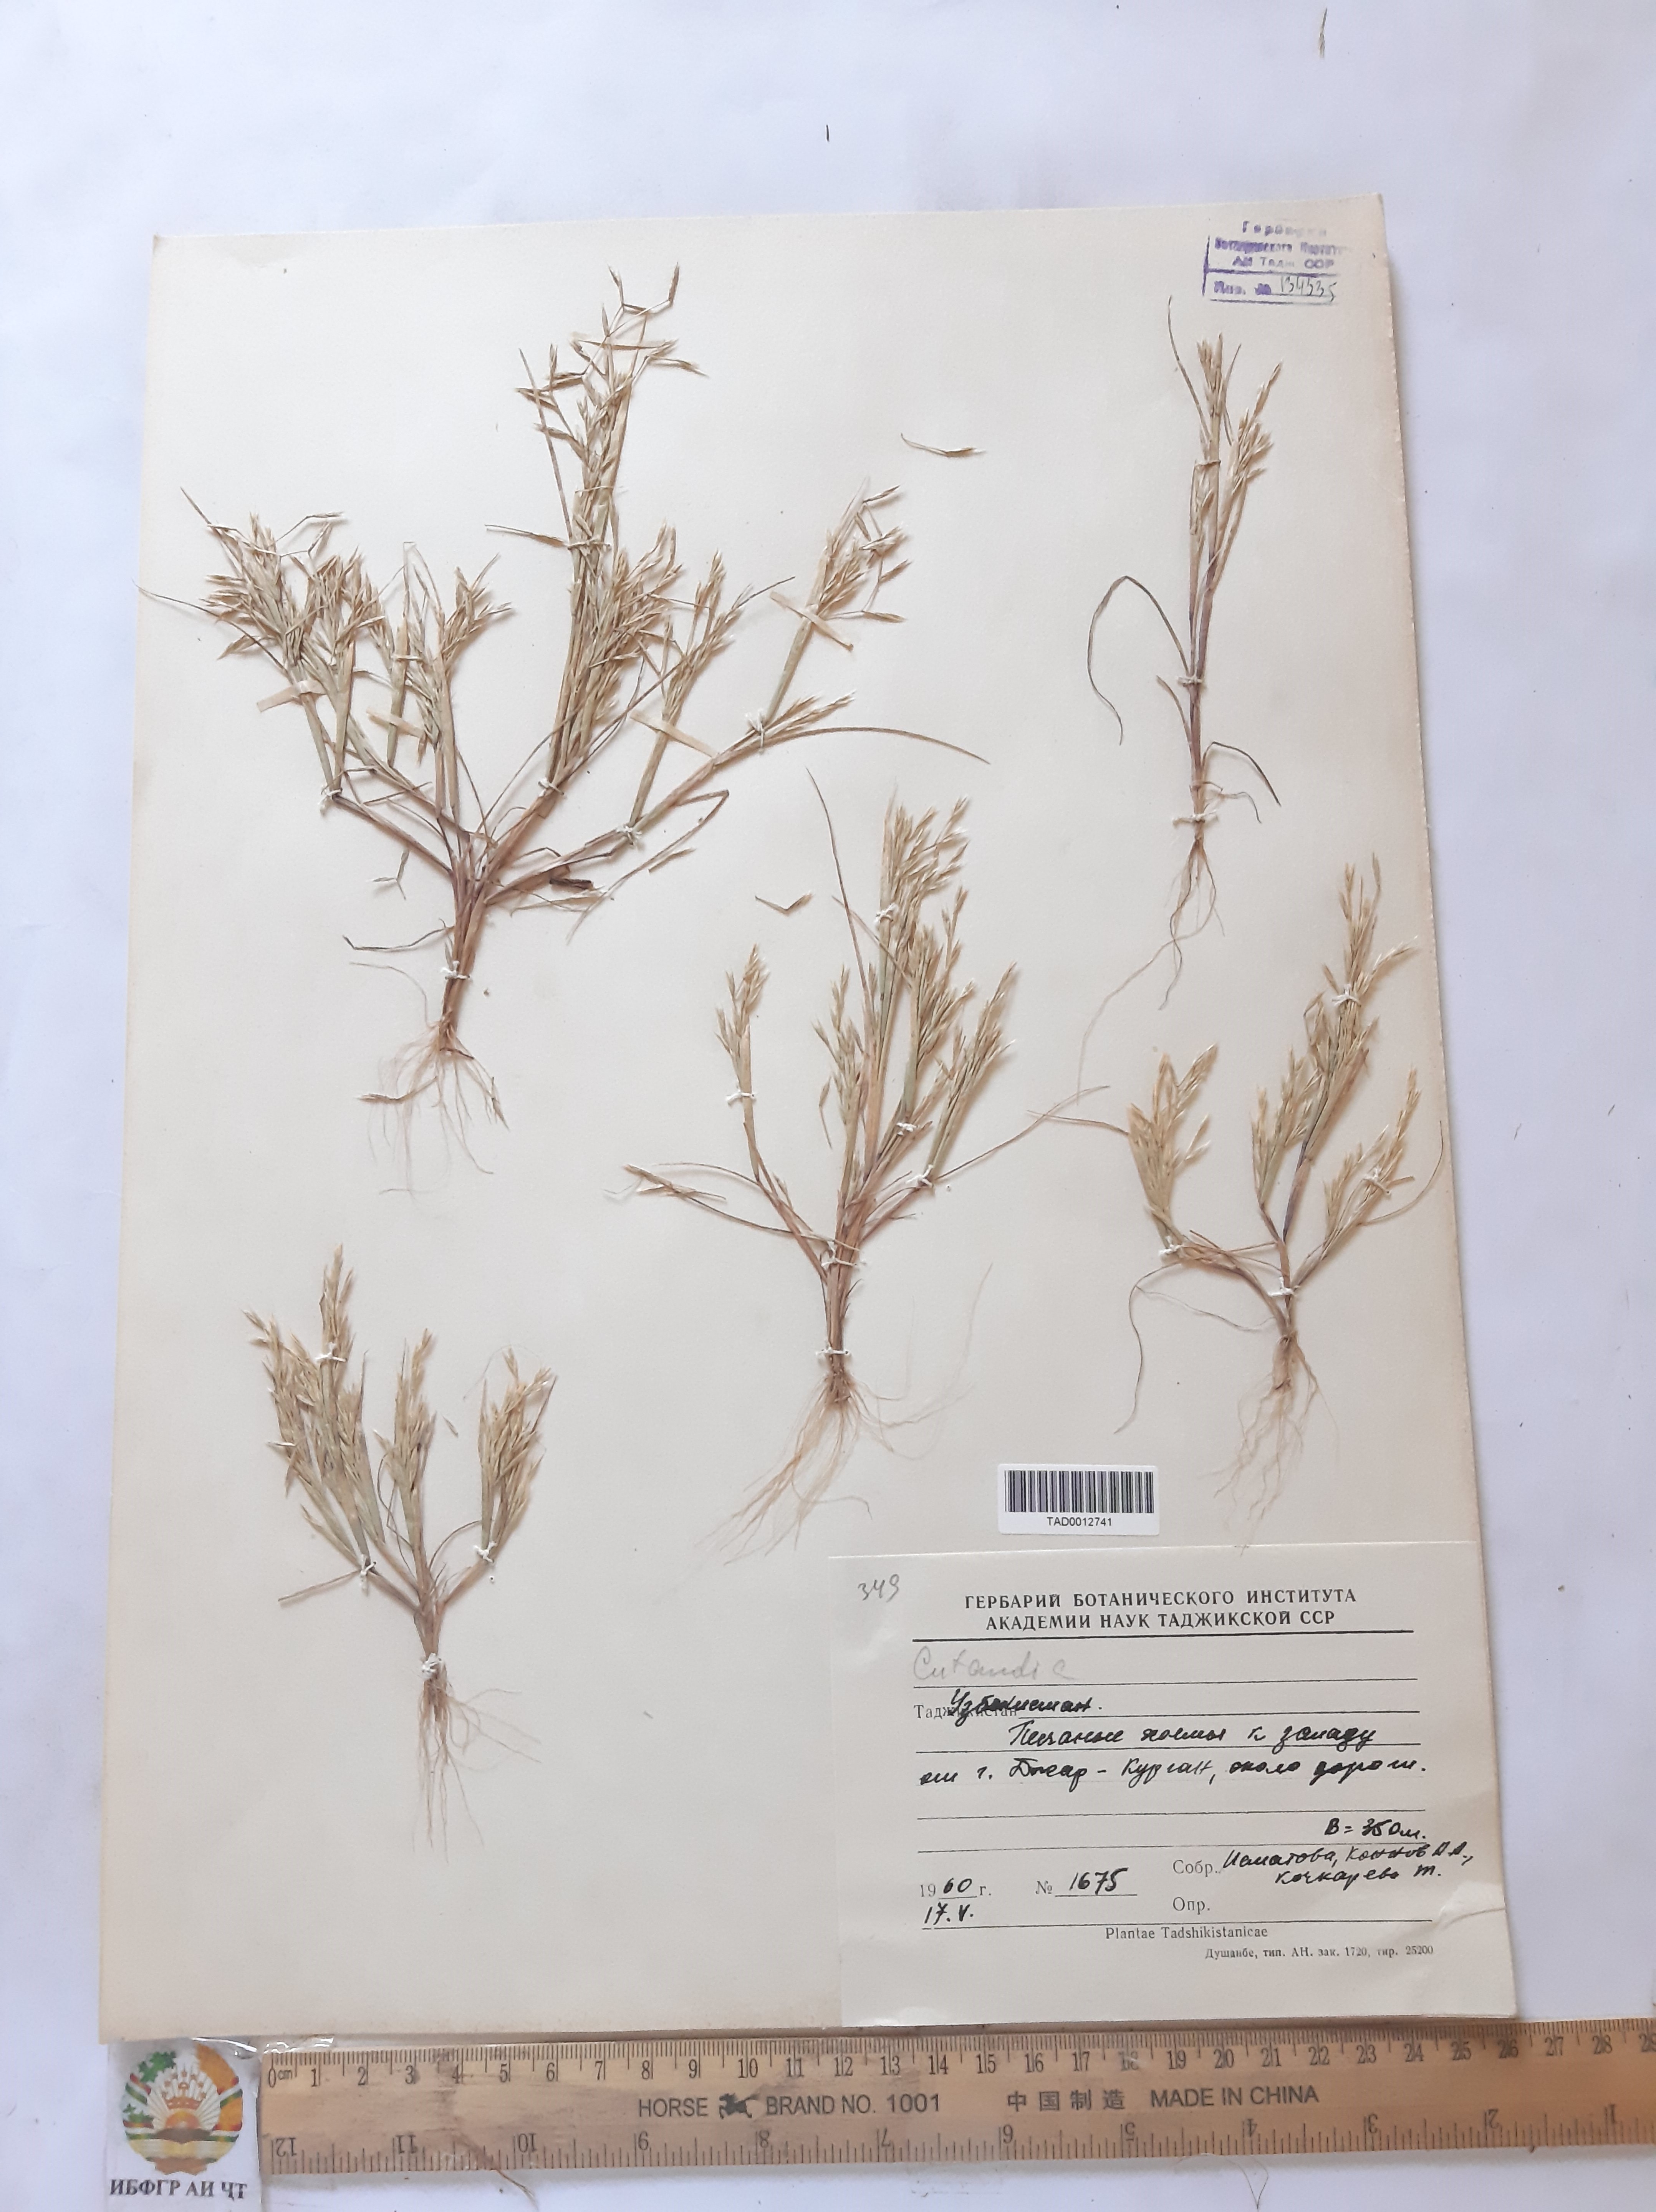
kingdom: Plantae
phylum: Tracheophyta
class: Liliopsida
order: Poales
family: Poaceae
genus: Cutandia
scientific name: Cutandia memphitica
